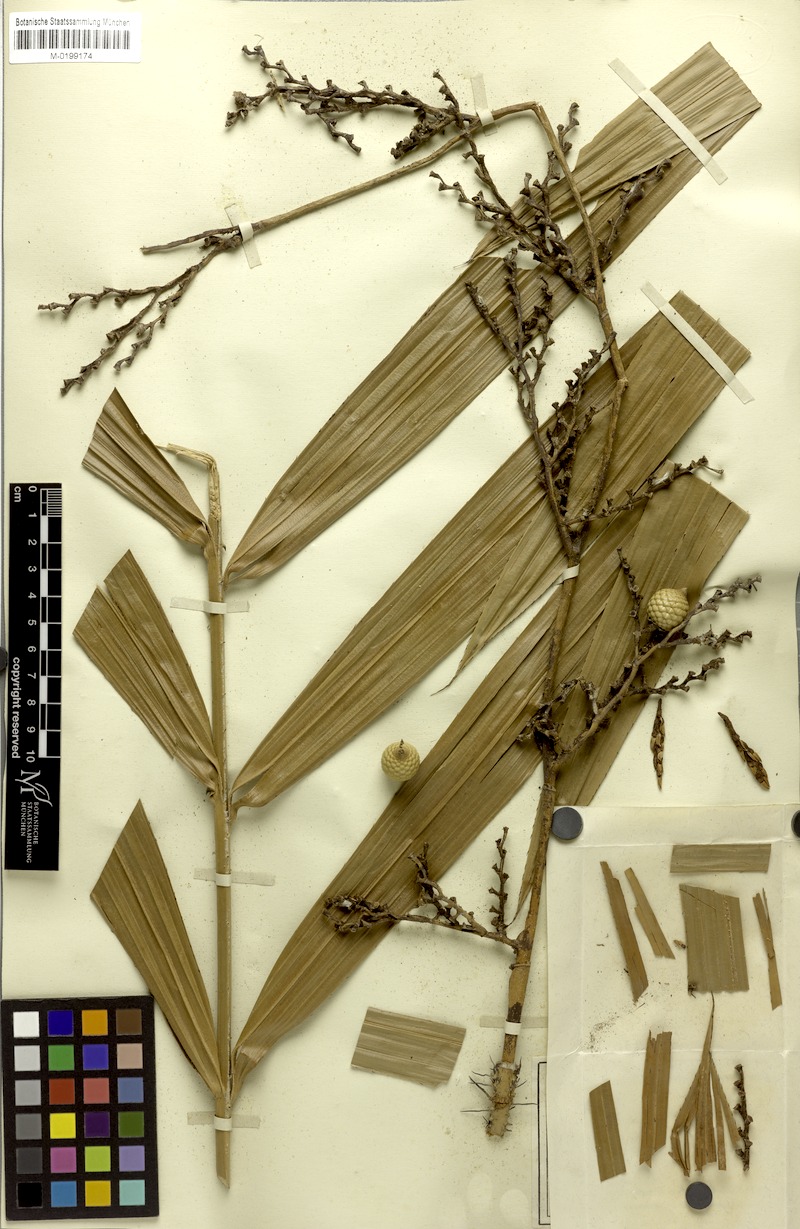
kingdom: Plantae
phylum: Tracheophyta
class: Liliopsida
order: Arecales
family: Arecaceae
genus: Calamus
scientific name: Calamus ochrolepis
